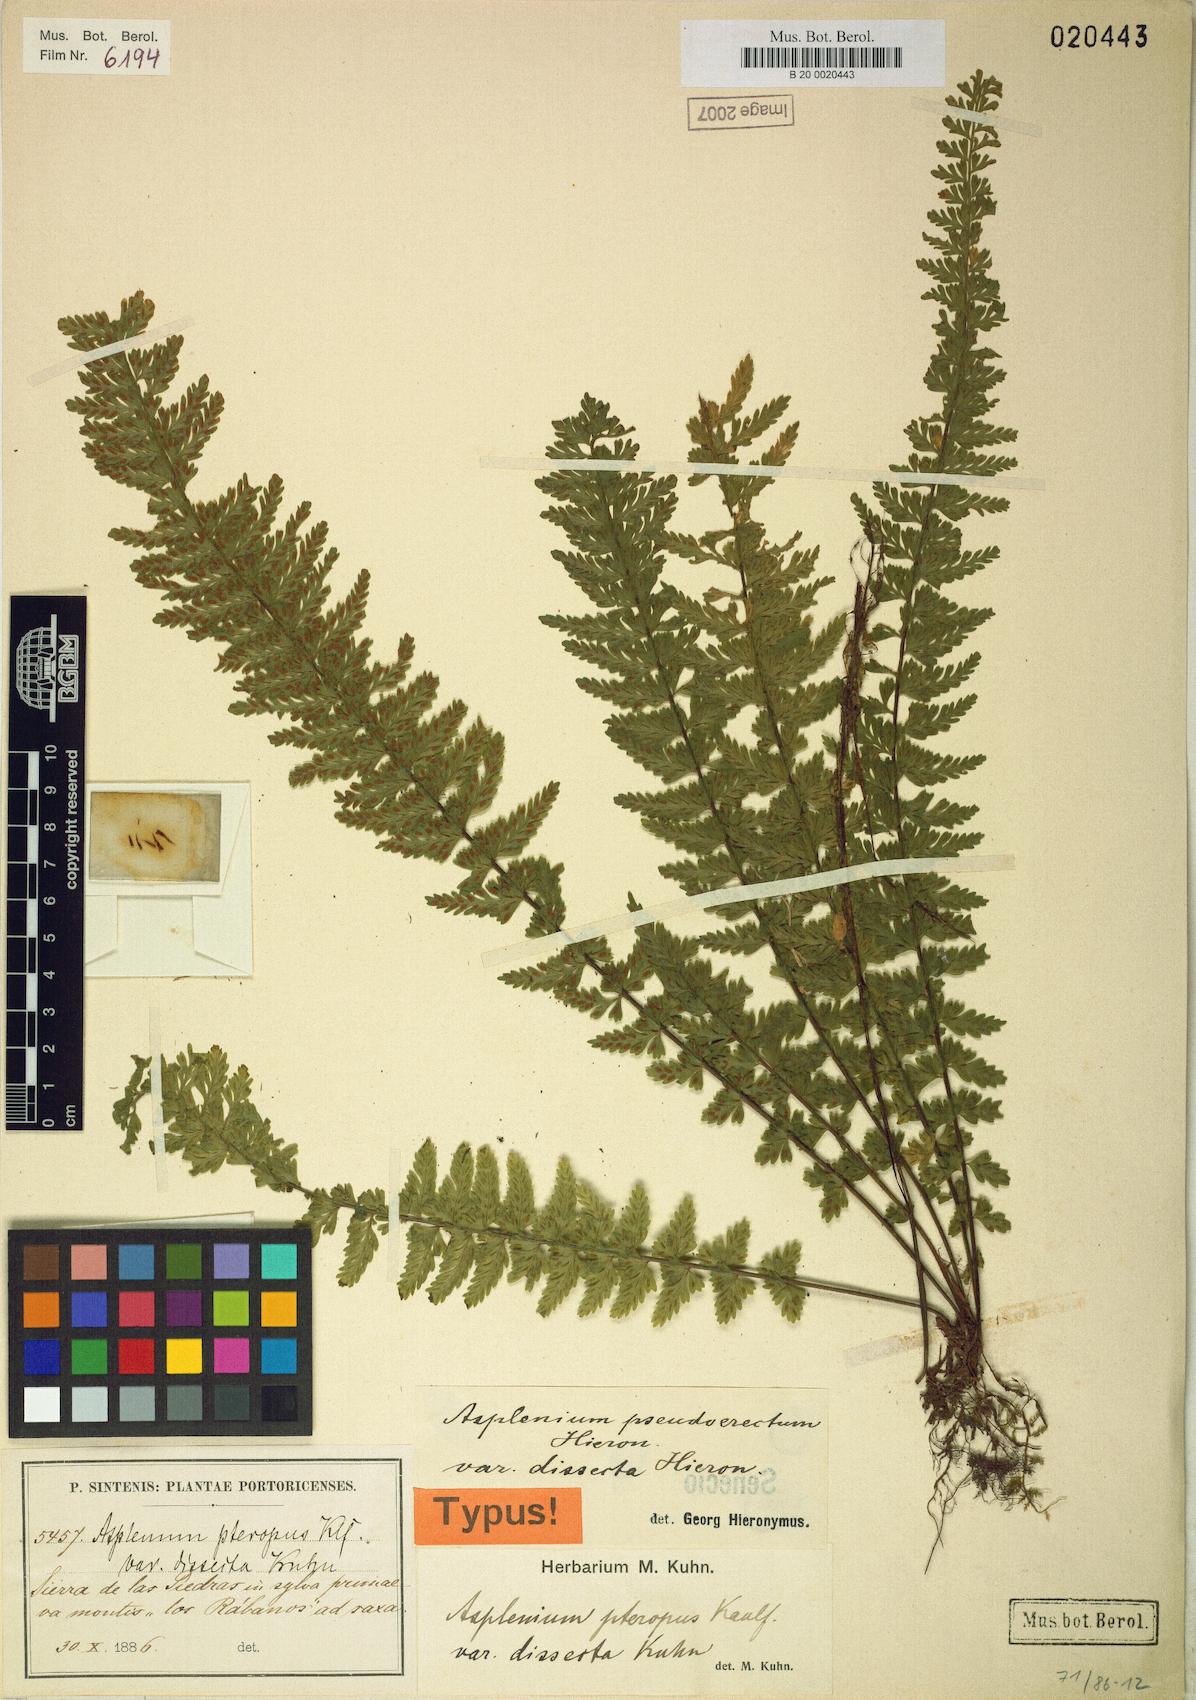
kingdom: Plantae
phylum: Tracheophyta
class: Polypodiopsida
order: Polypodiales
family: Aspleniaceae
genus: Asplenium
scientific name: Asplenium sessilifolium
